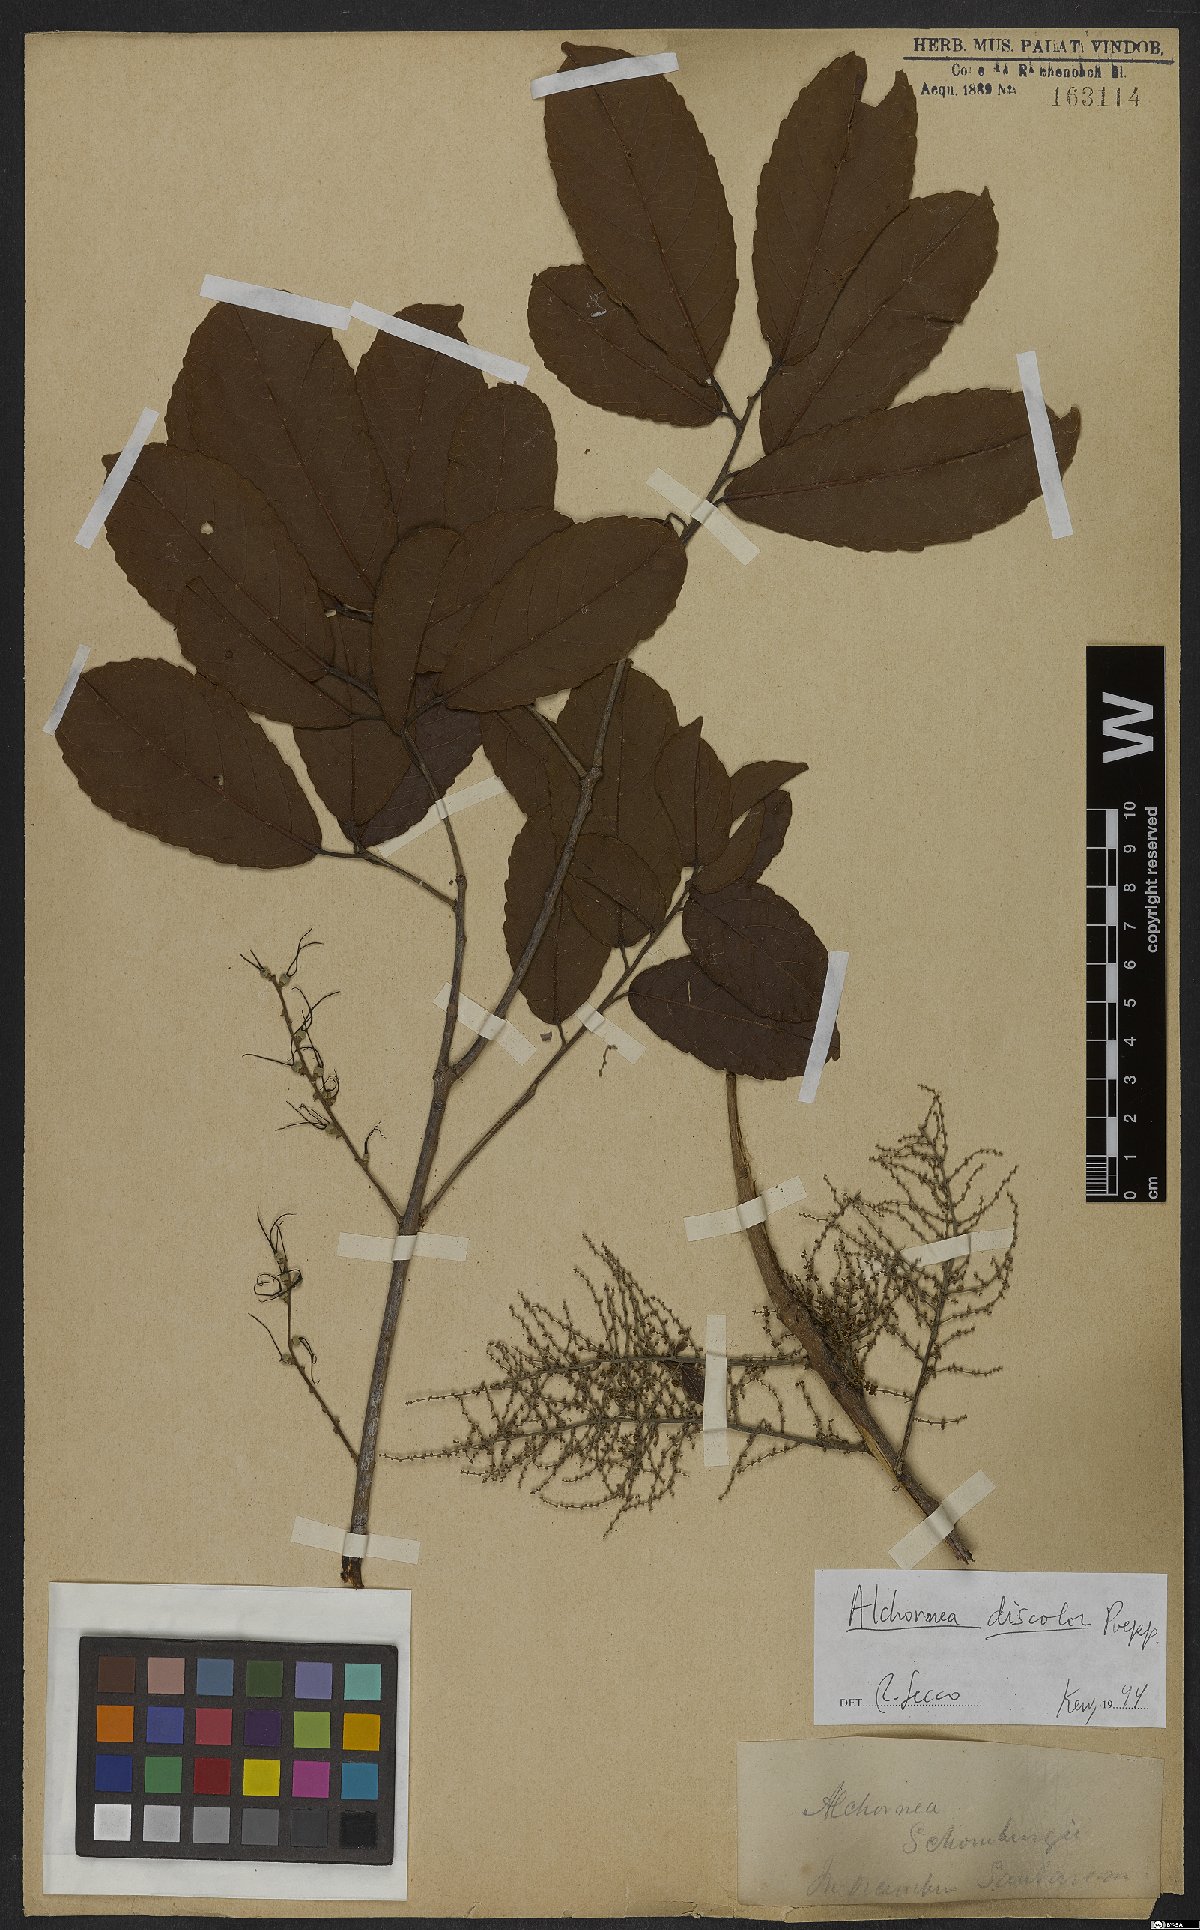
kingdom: Plantae
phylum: Tracheophyta
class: Magnoliopsida
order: Malpighiales
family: Euphorbiaceae
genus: Alchornea
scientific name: Alchornea discolor
